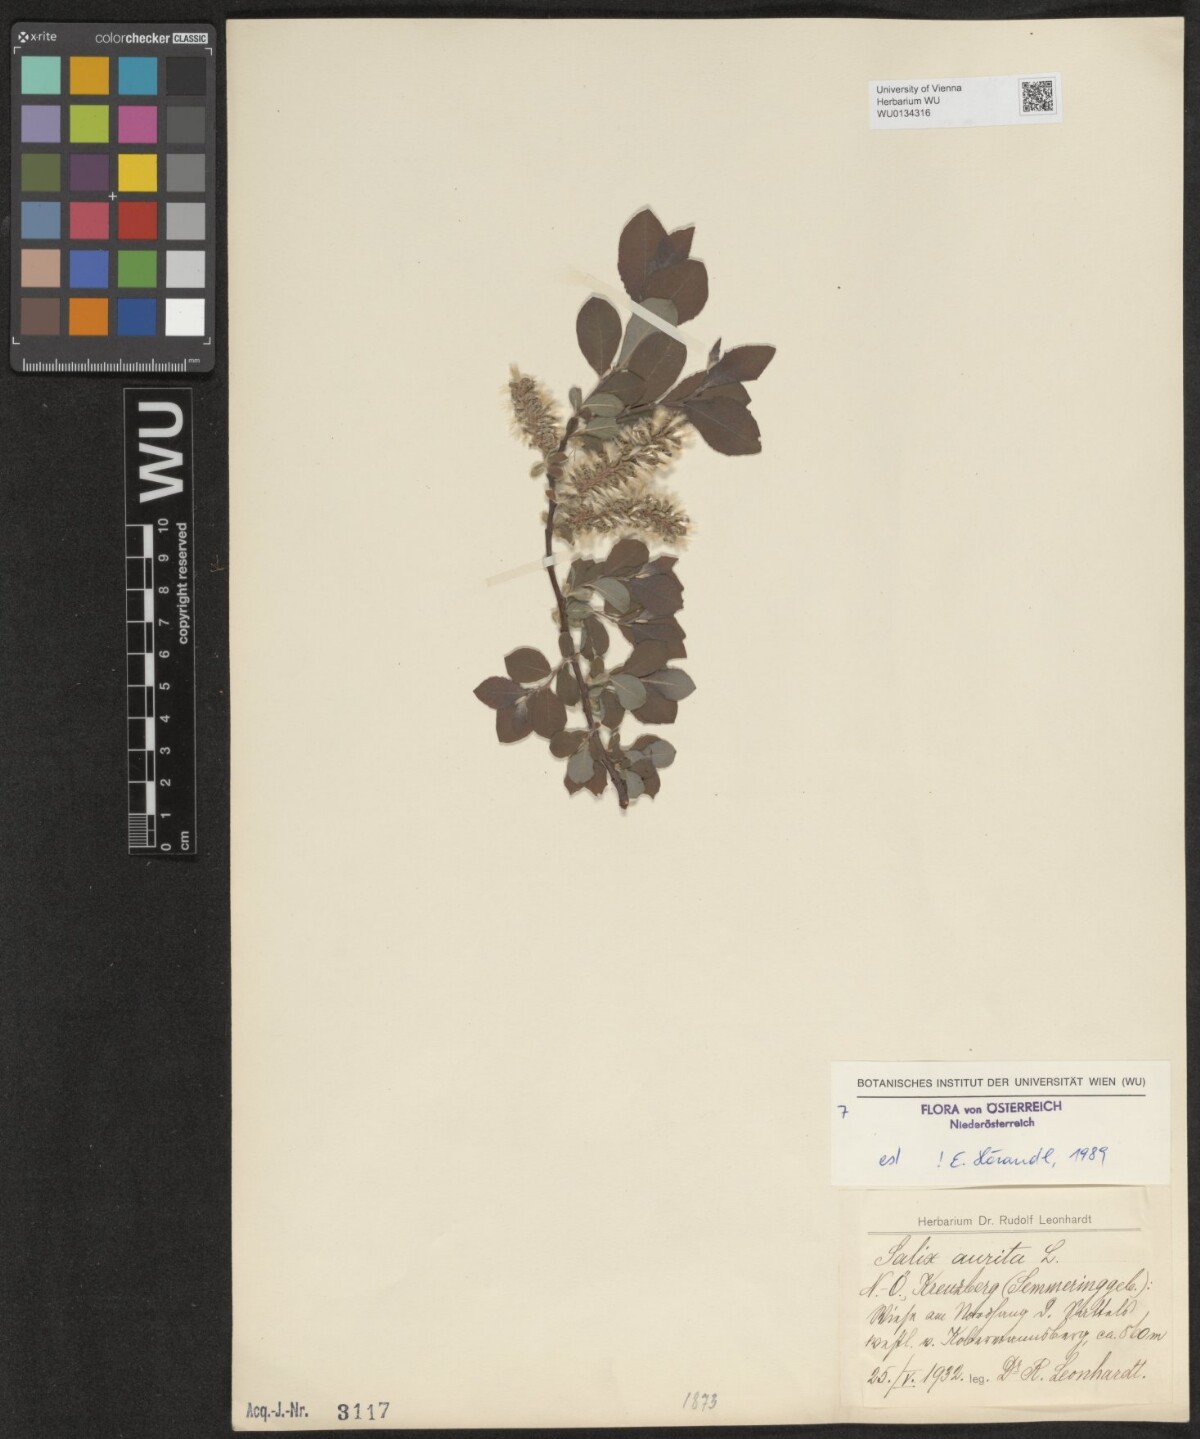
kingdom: Plantae
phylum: Tracheophyta
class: Magnoliopsida
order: Malpighiales
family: Salicaceae
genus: Salix
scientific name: Salix aurita
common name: Eared willow
